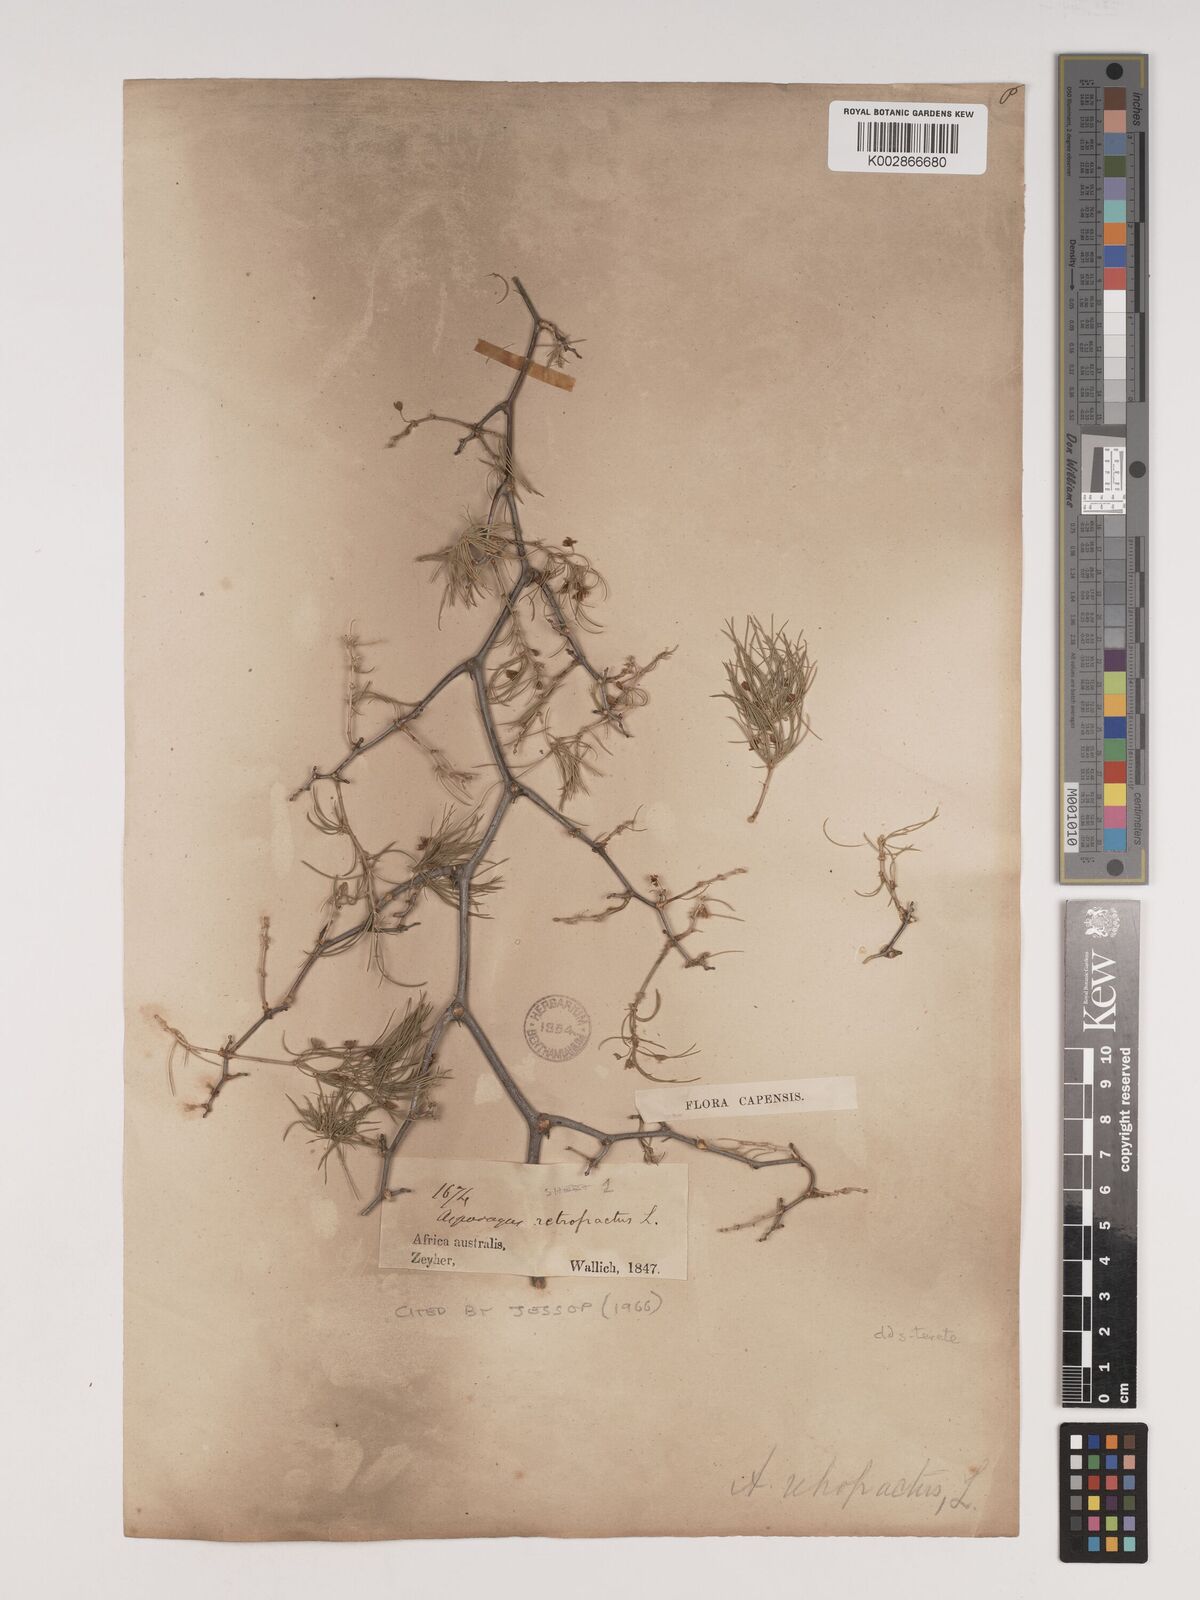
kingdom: Plantae
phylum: Tracheophyta
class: Liliopsida
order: Asparagales
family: Asparagaceae
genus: Asparagus
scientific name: Asparagus retrofractus
